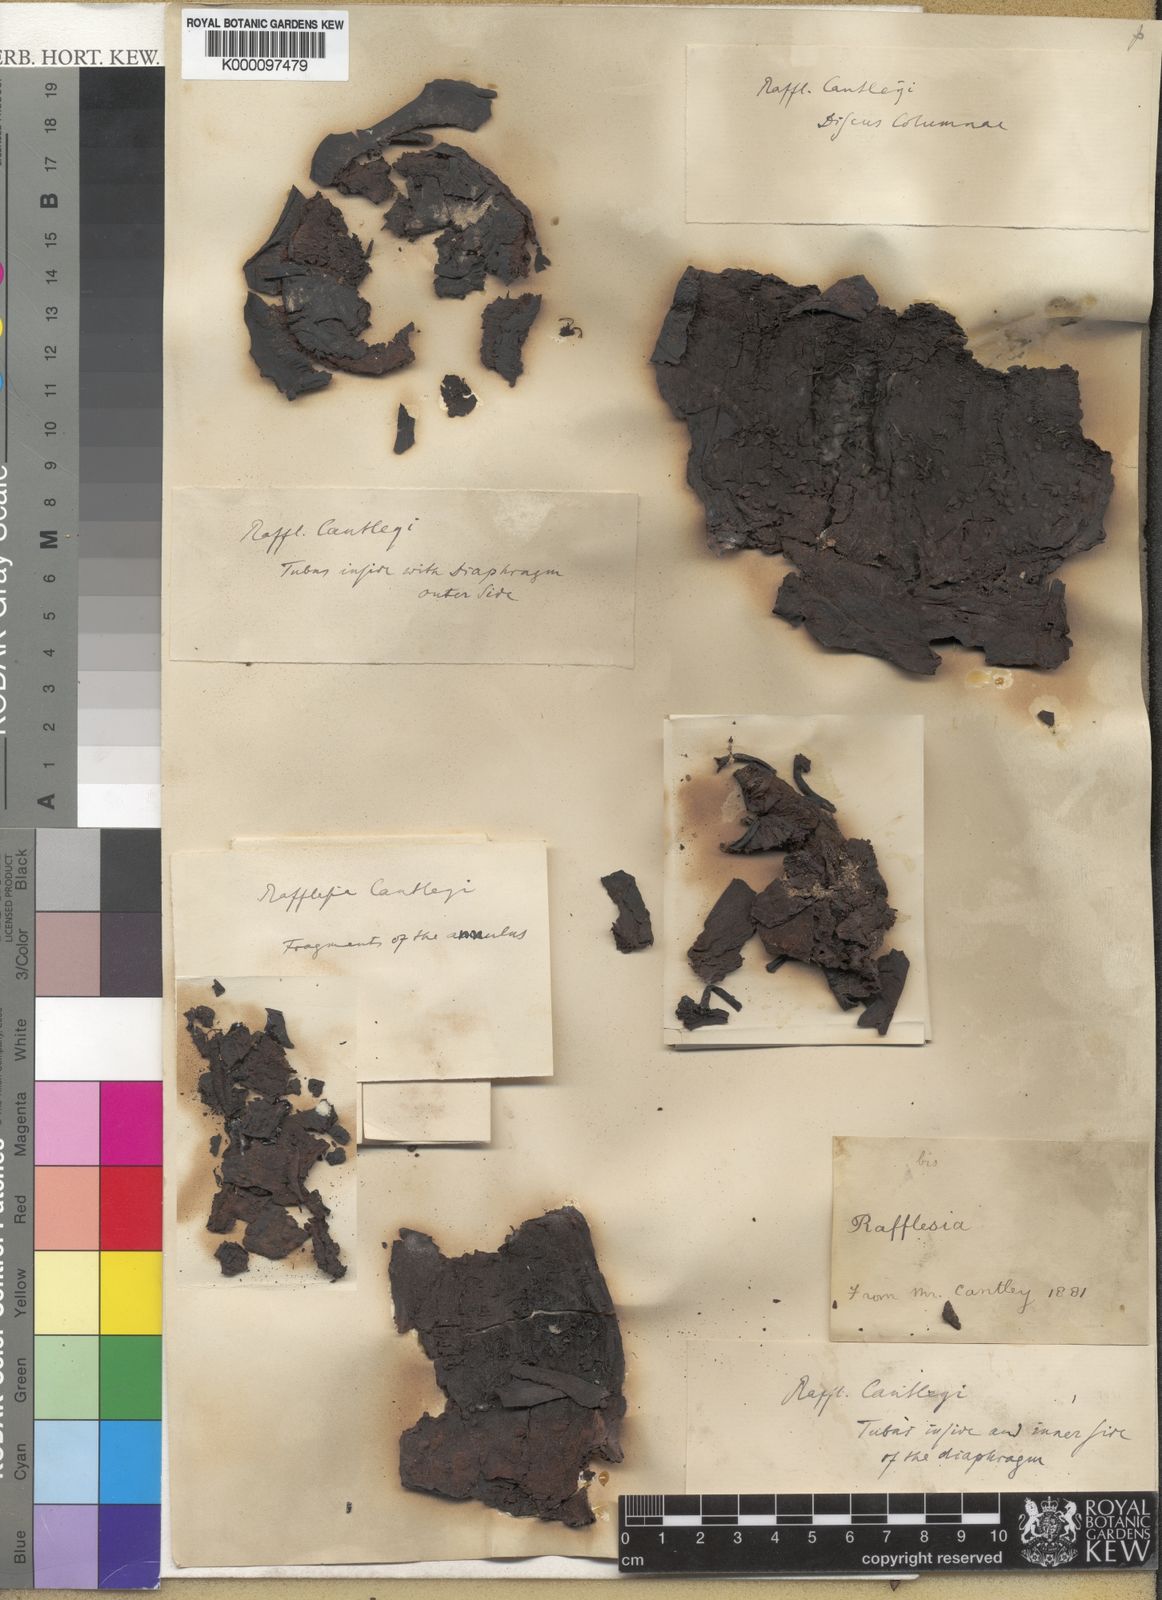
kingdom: Plantae
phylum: Tracheophyta
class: Magnoliopsida
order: Malpighiales
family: Rafflesiaceae
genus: Rafflesia
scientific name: Rafflesia cantleyi
